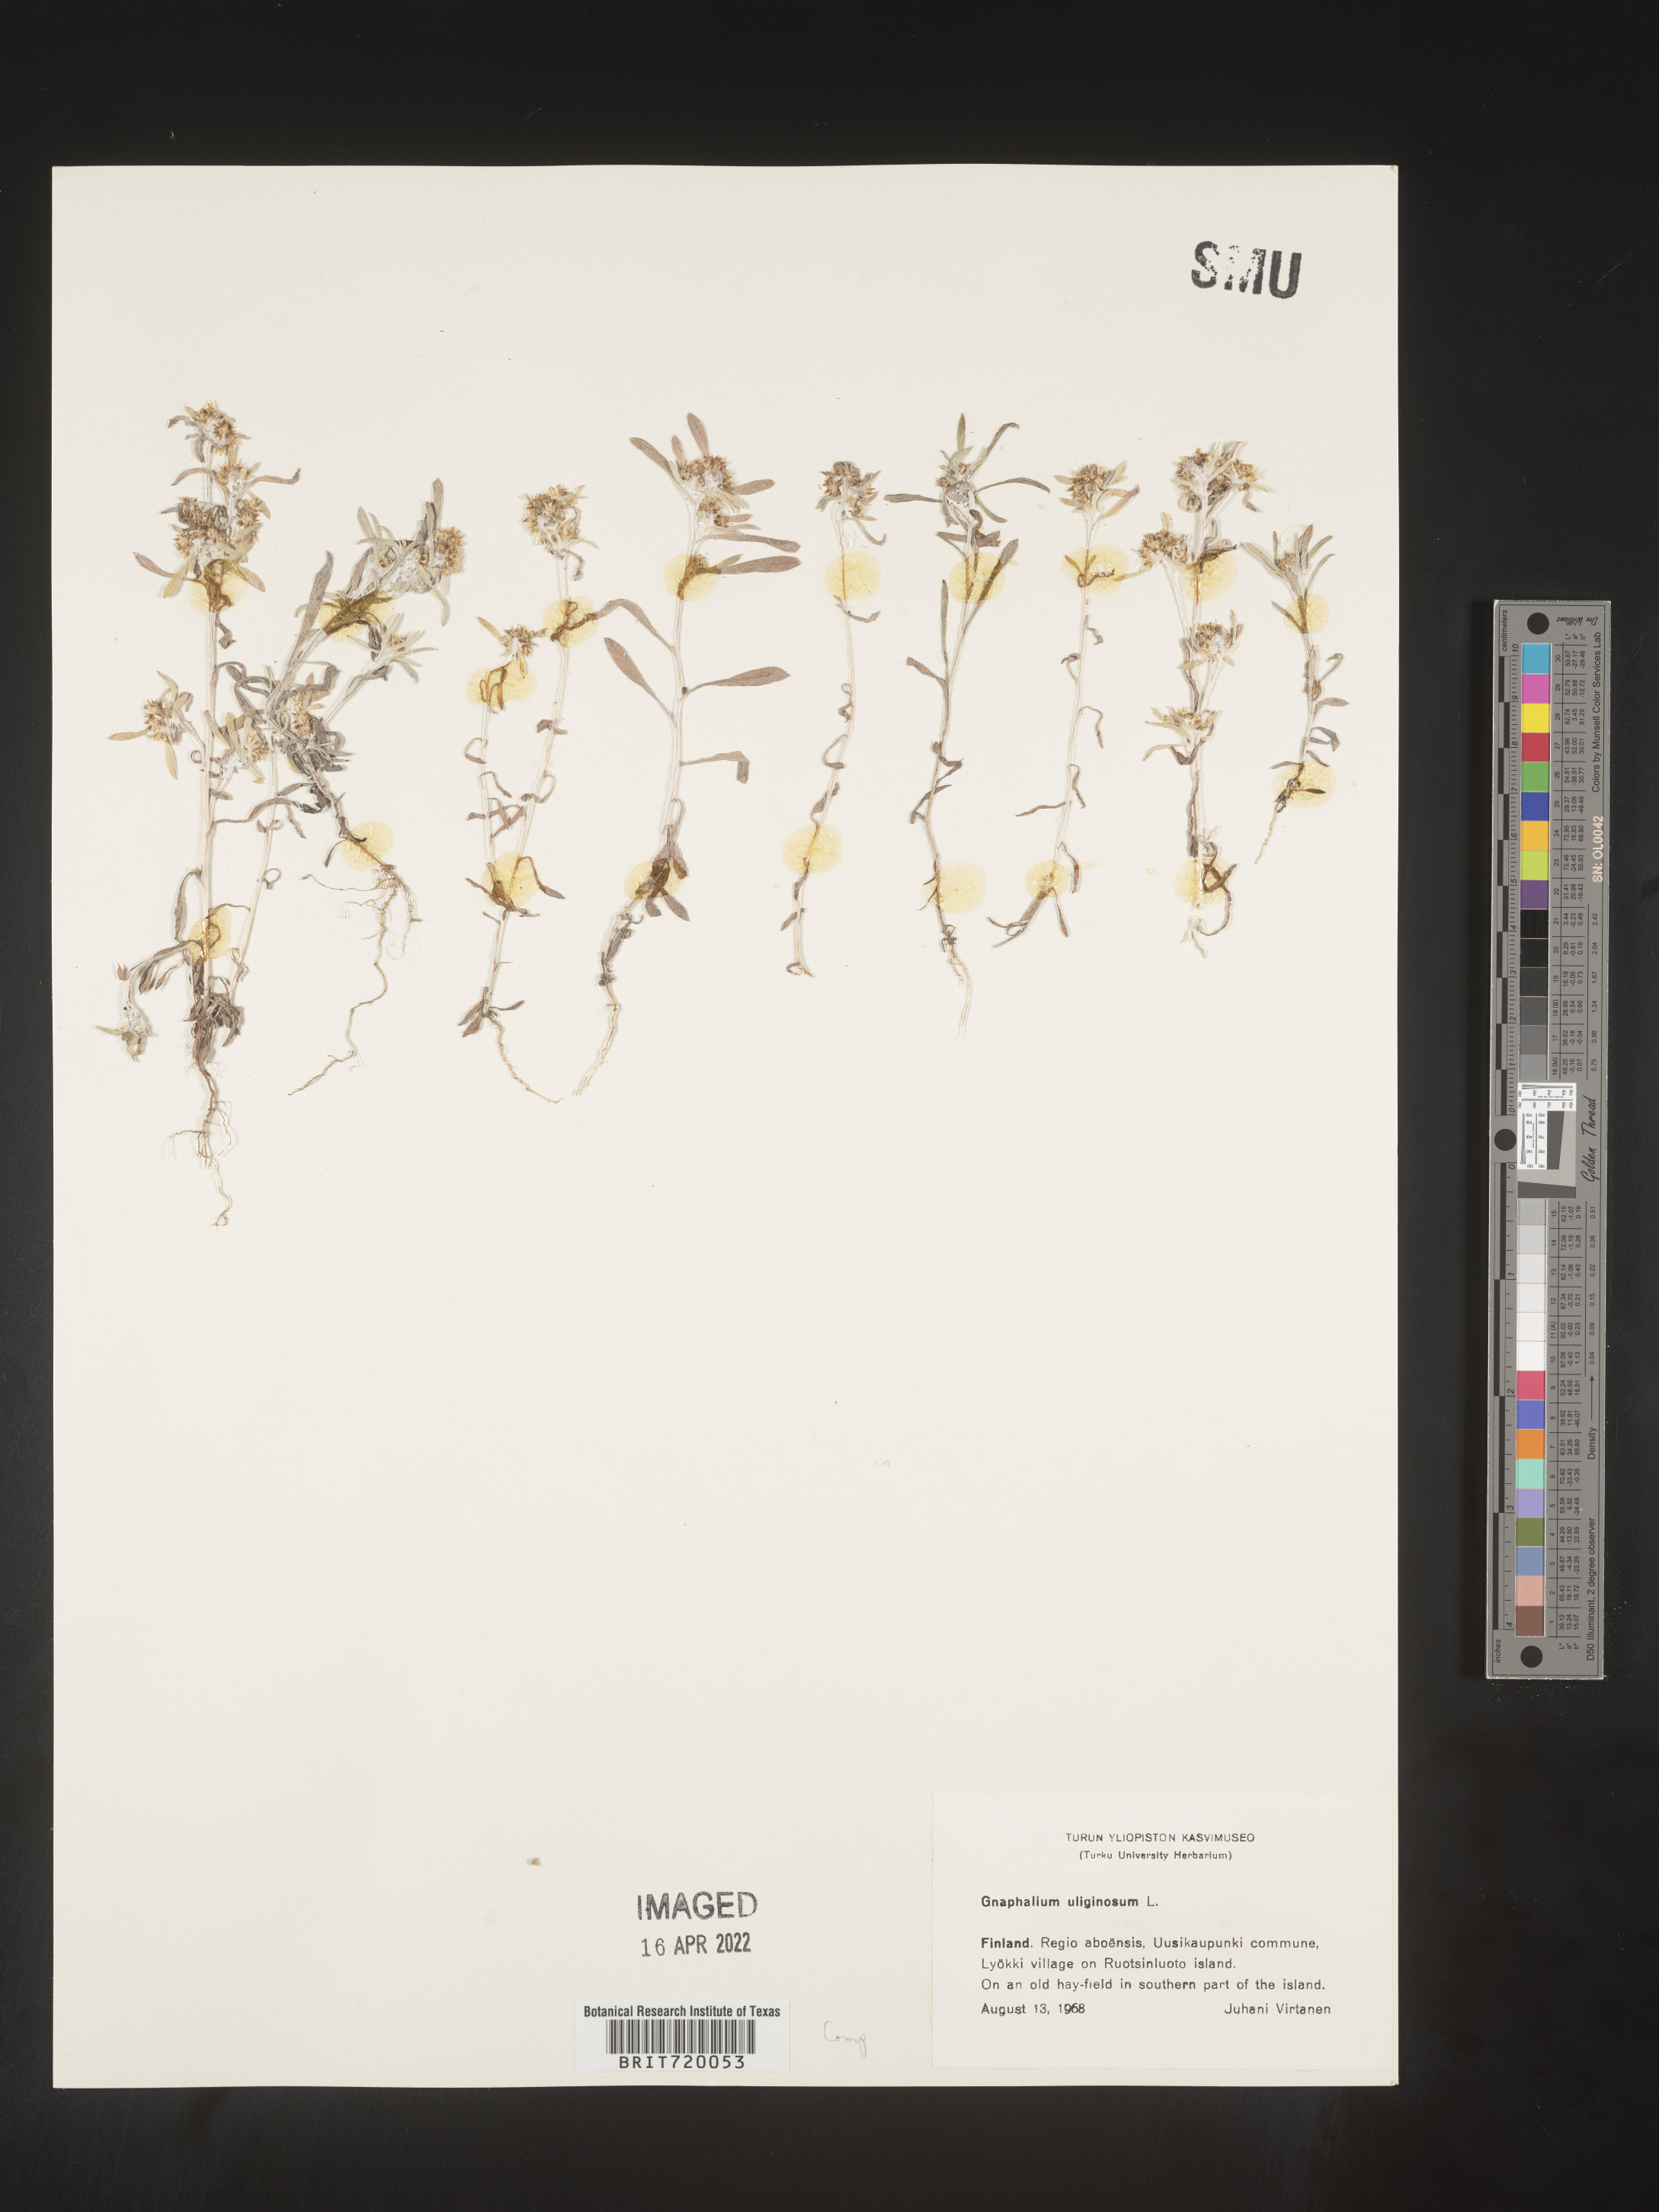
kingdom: Plantae
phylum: Tracheophyta
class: Magnoliopsida
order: Asterales
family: Asteraceae
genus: Gnaphalium
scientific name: Gnaphalium
